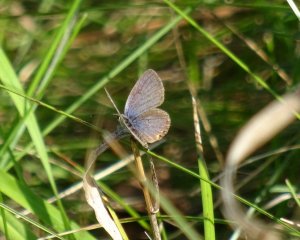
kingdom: Animalia
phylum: Arthropoda
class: Insecta
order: Lepidoptera
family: Lycaenidae
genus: Elkalyce
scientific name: Elkalyce comyntas
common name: Eastern Tailed-Blue
